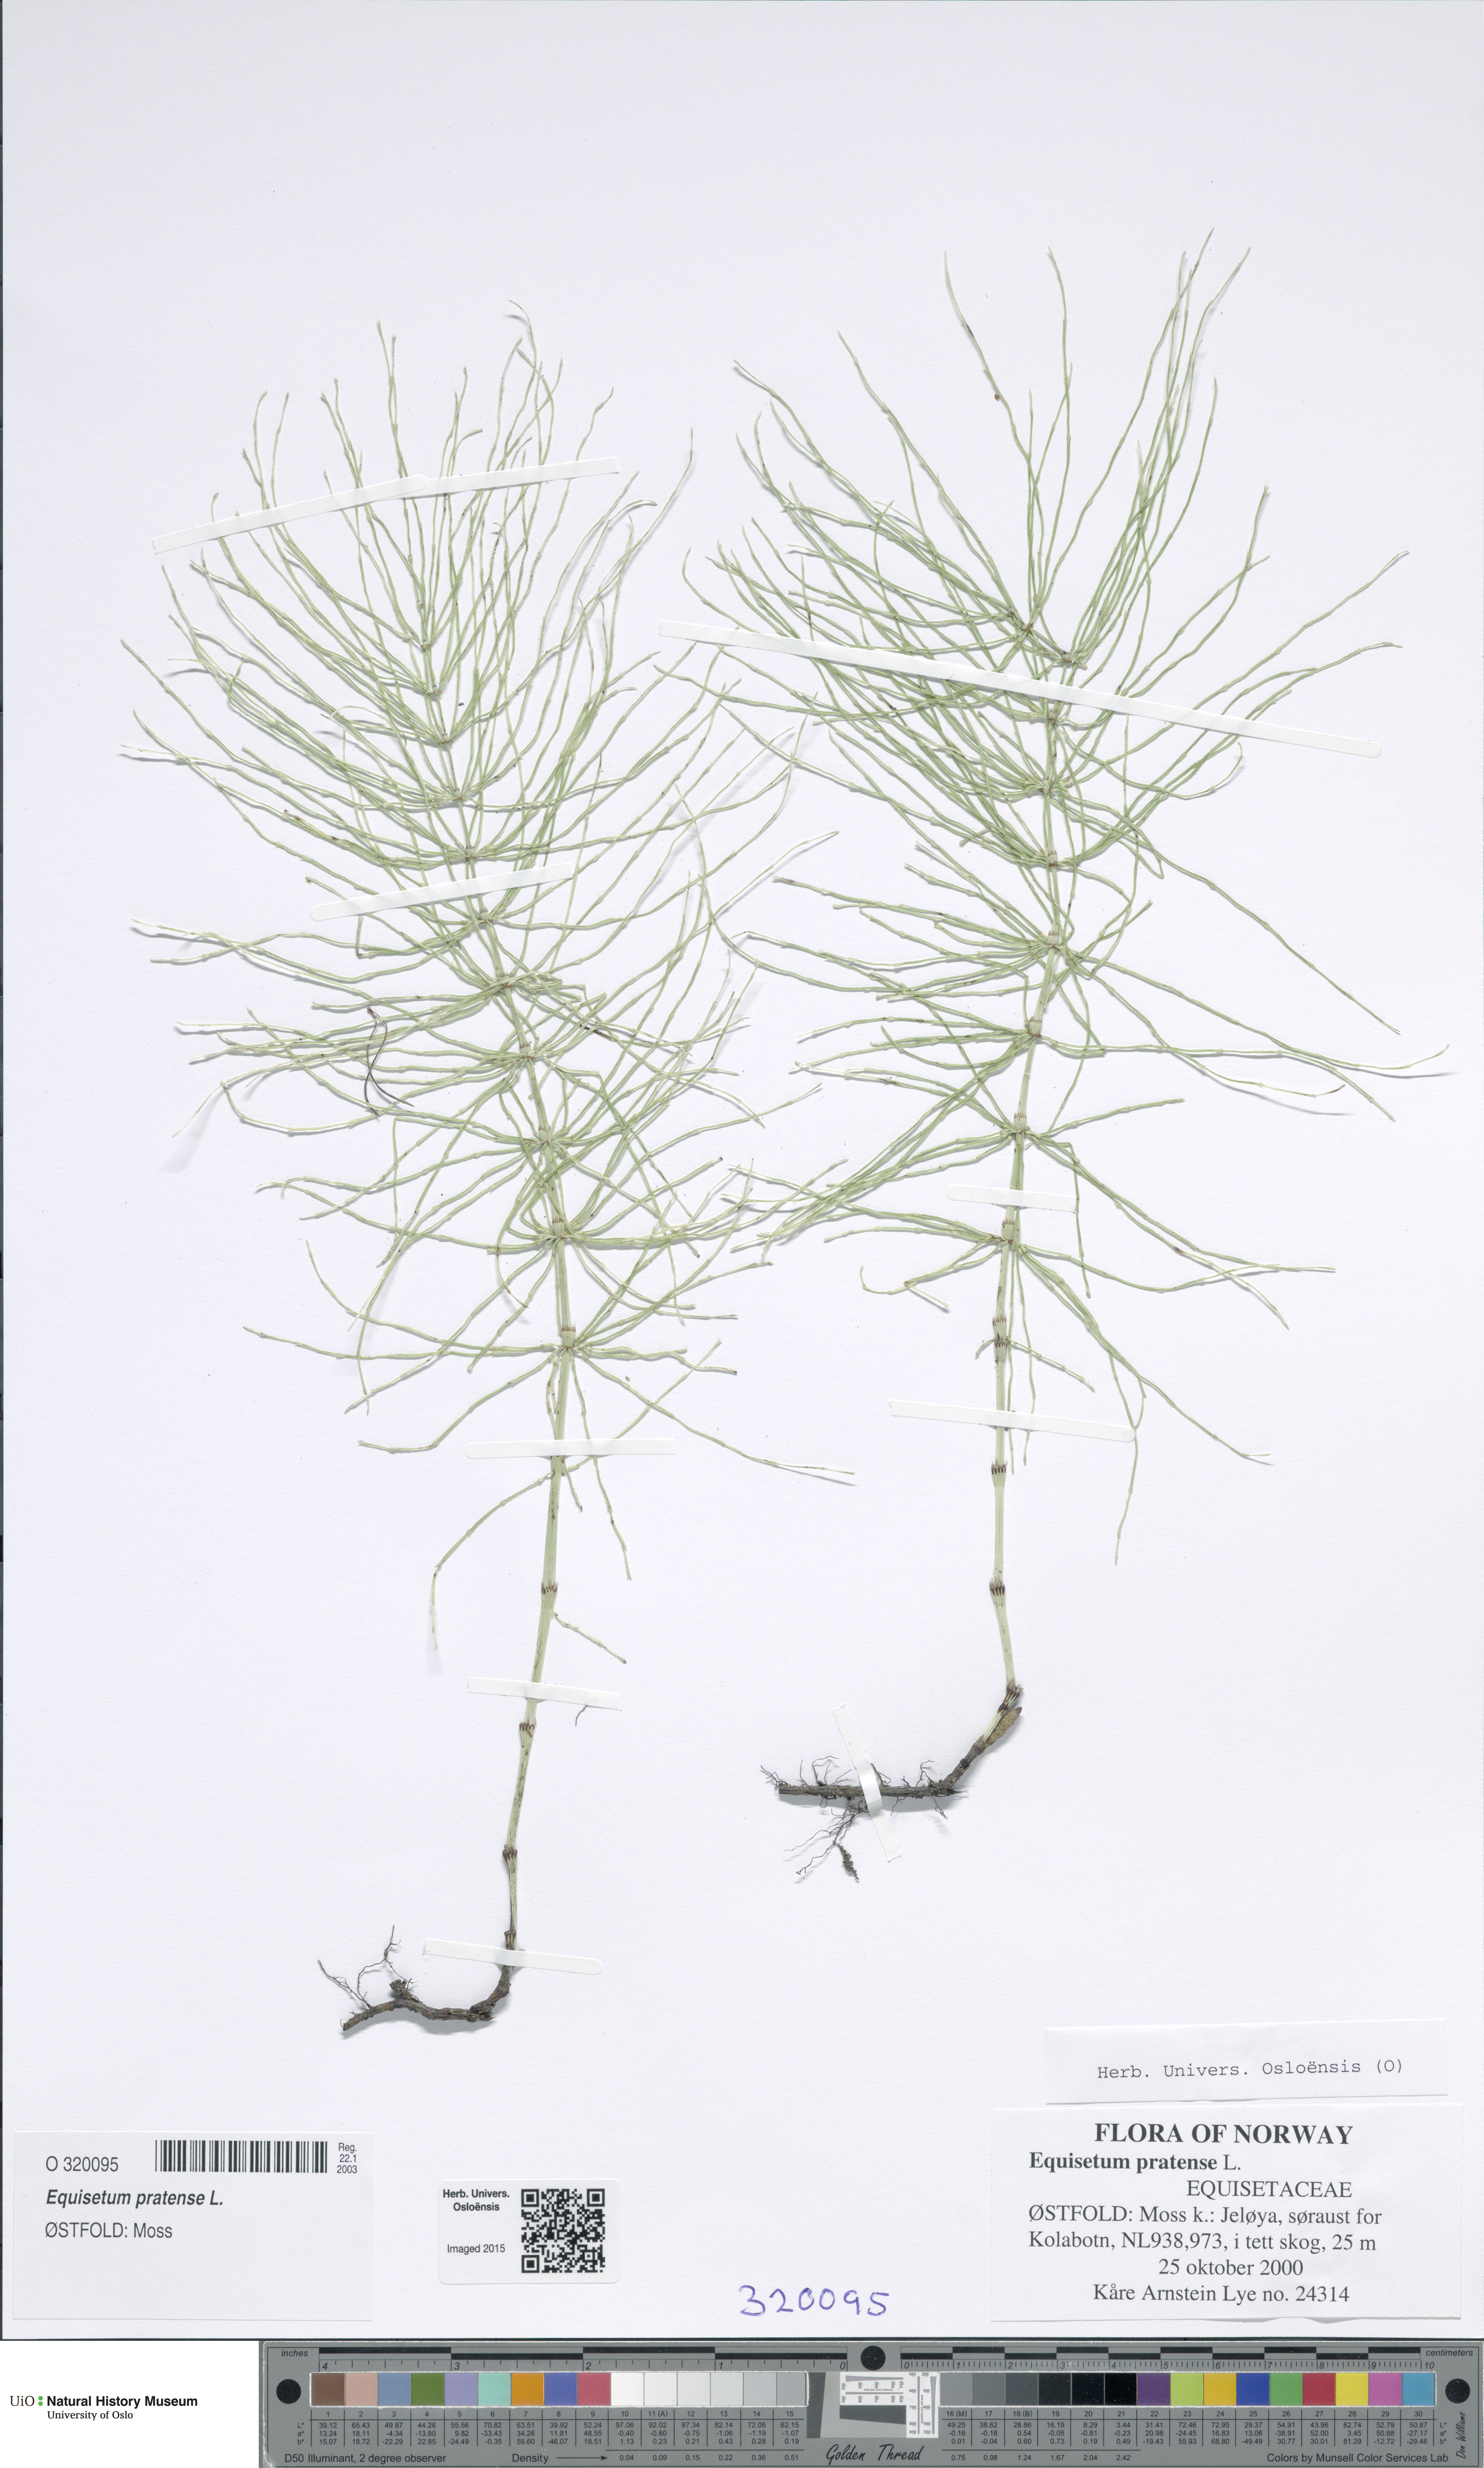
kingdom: Plantae
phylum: Tracheophyta
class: Polypodiopsida
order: Equisetales
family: Equisetaceae
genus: Equisetum
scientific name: Equisetum pratense
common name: Meadow horsetail
